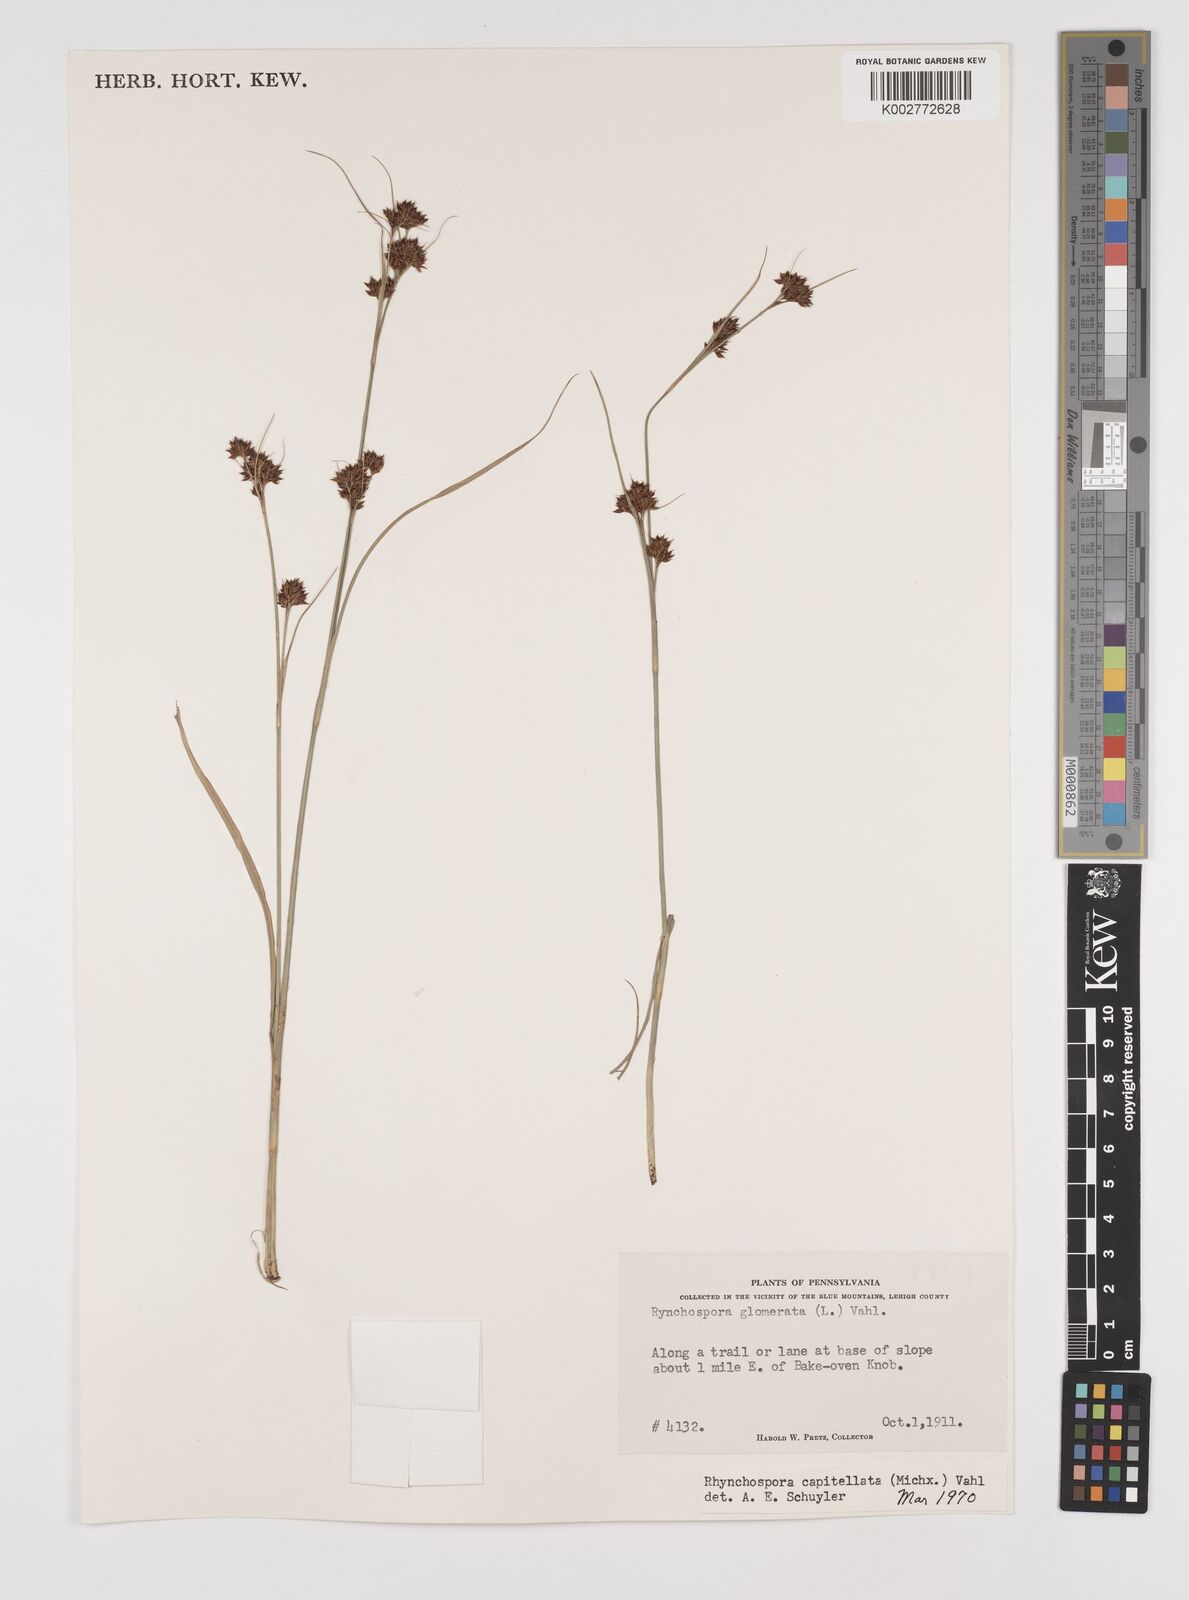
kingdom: Plantae
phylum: Tracheophyta
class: Liliopsida
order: Poales
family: Cyperaceae
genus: Rhynchospora
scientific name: Rhynchospora capitellata
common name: Brownish beaksedge
